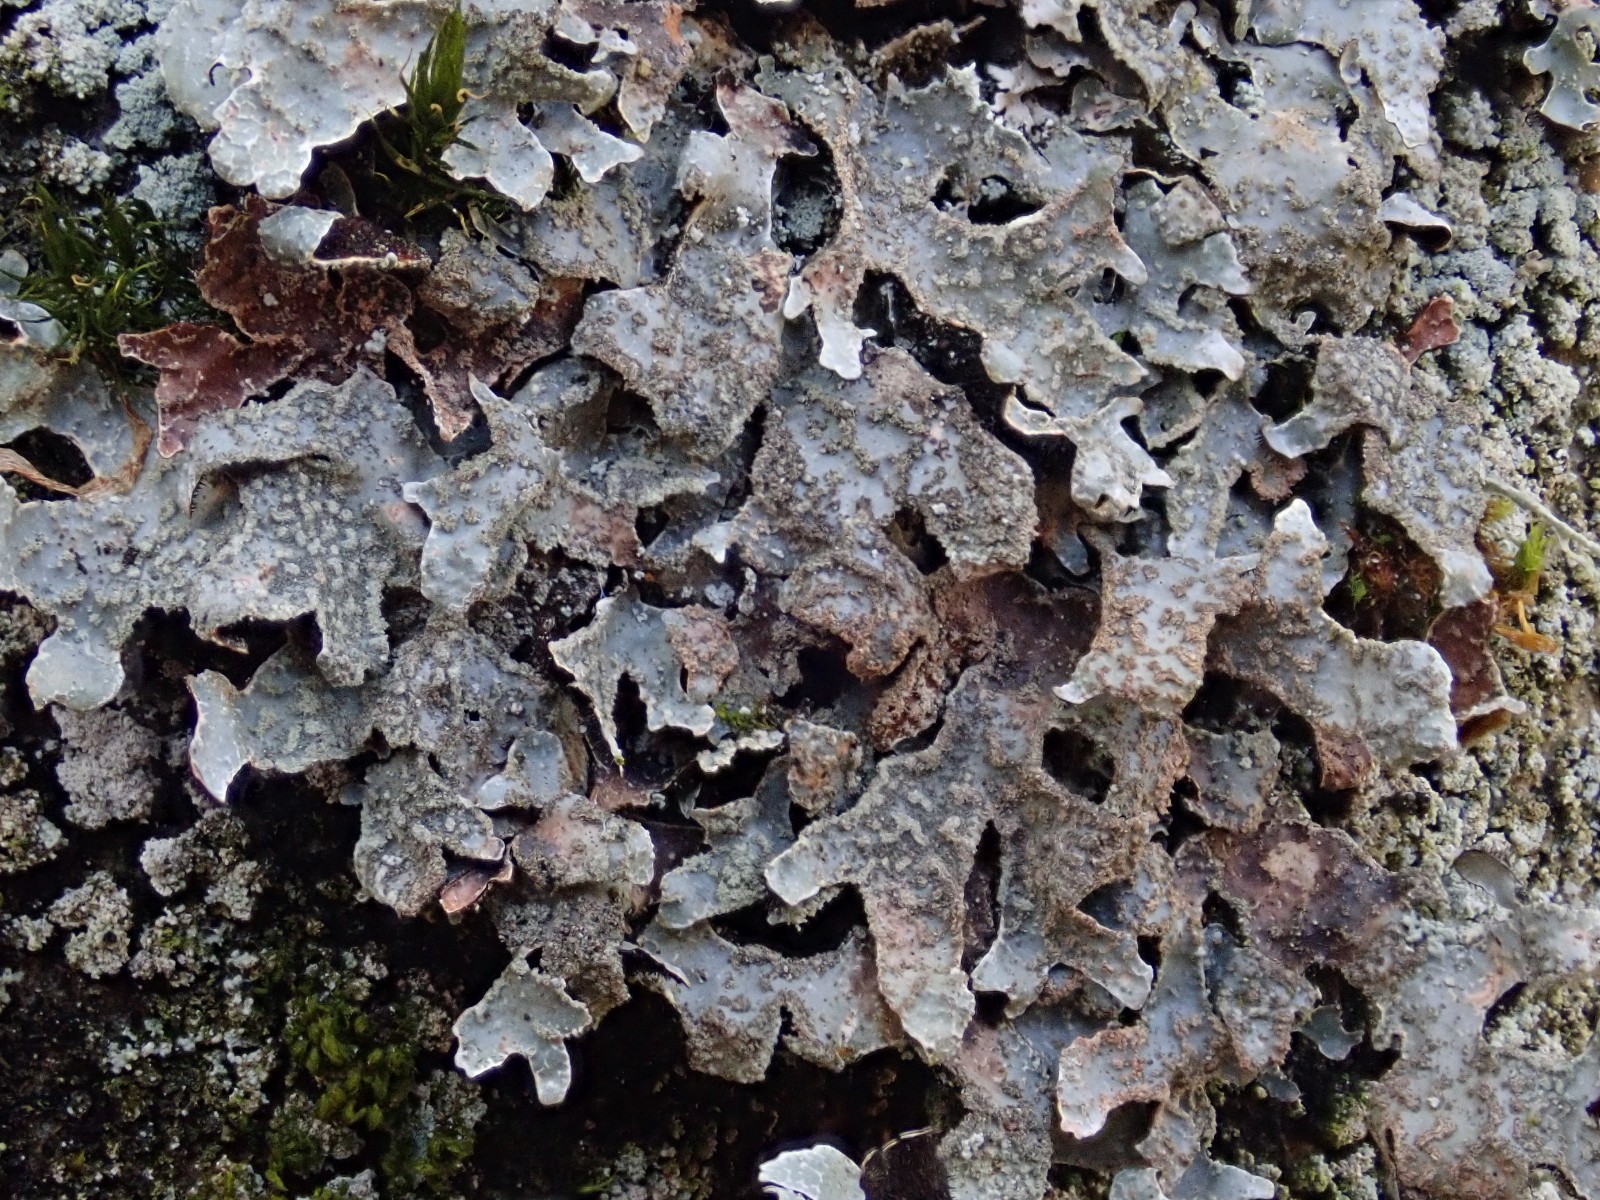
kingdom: Fungi
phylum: Ascomycota
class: Lecanoromycetes
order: Lecanorales
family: Parmeliaceae
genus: Parmelia
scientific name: Parmelia sulcata
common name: rynket skållav
